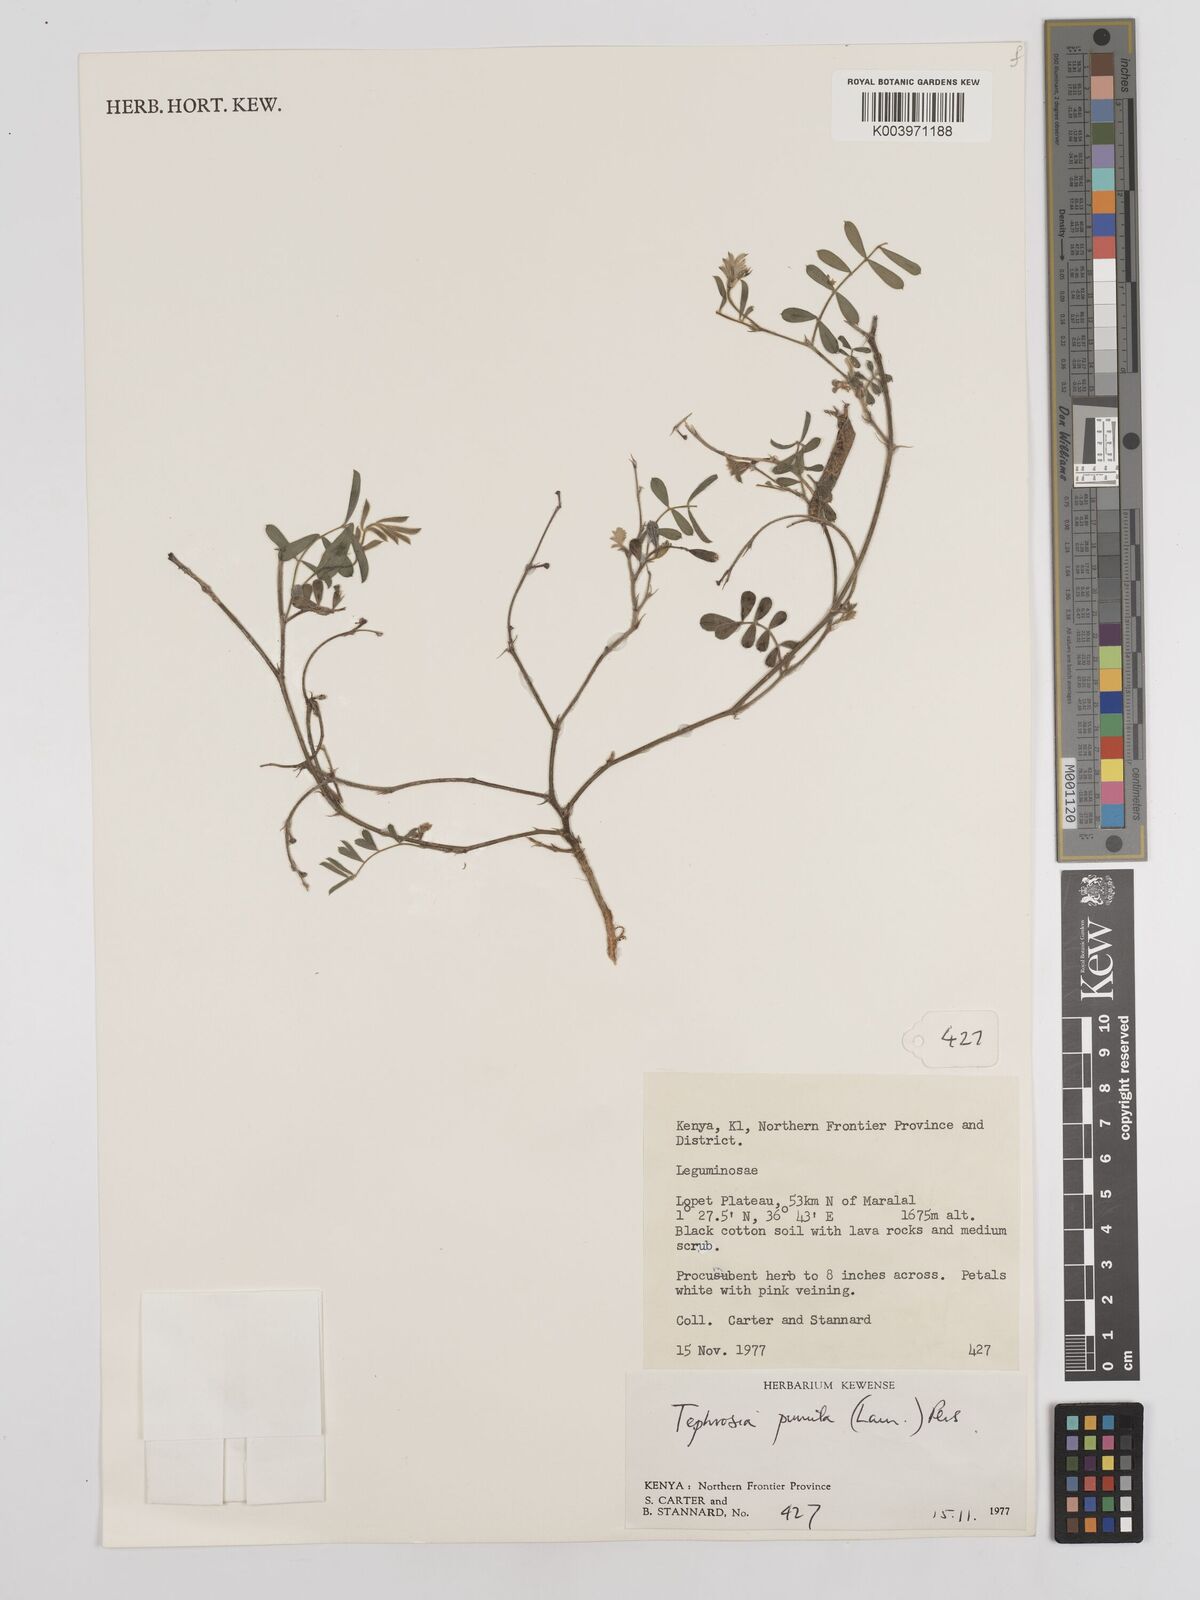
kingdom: Plantae
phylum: Tracheophyta
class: Magnoliopsida
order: Fabales
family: Fabaceae
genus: Tephrosia
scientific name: Tephrosia pumila
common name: Indigo sauvage
